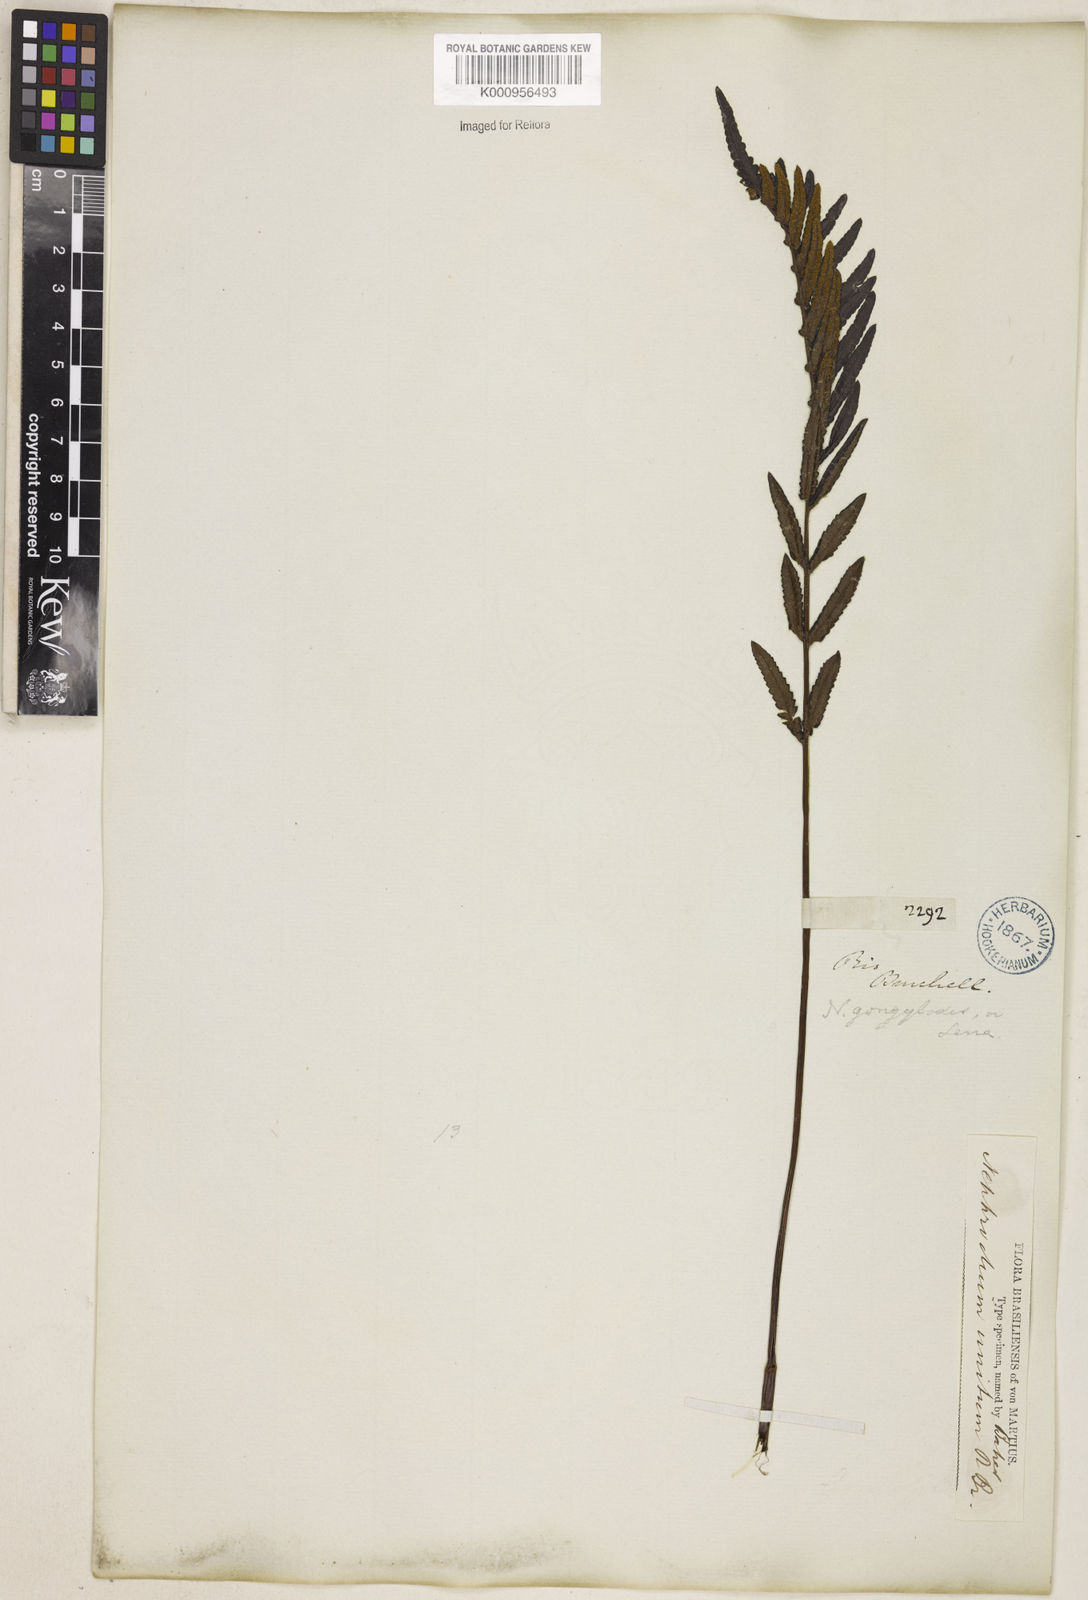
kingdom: Plantae
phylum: Tracheophyta
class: Polypodiopsida
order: Polypodiales
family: Thelypteridaceae
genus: Cyclosorus
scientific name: Cyclosorus interruptus
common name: Neke fern
